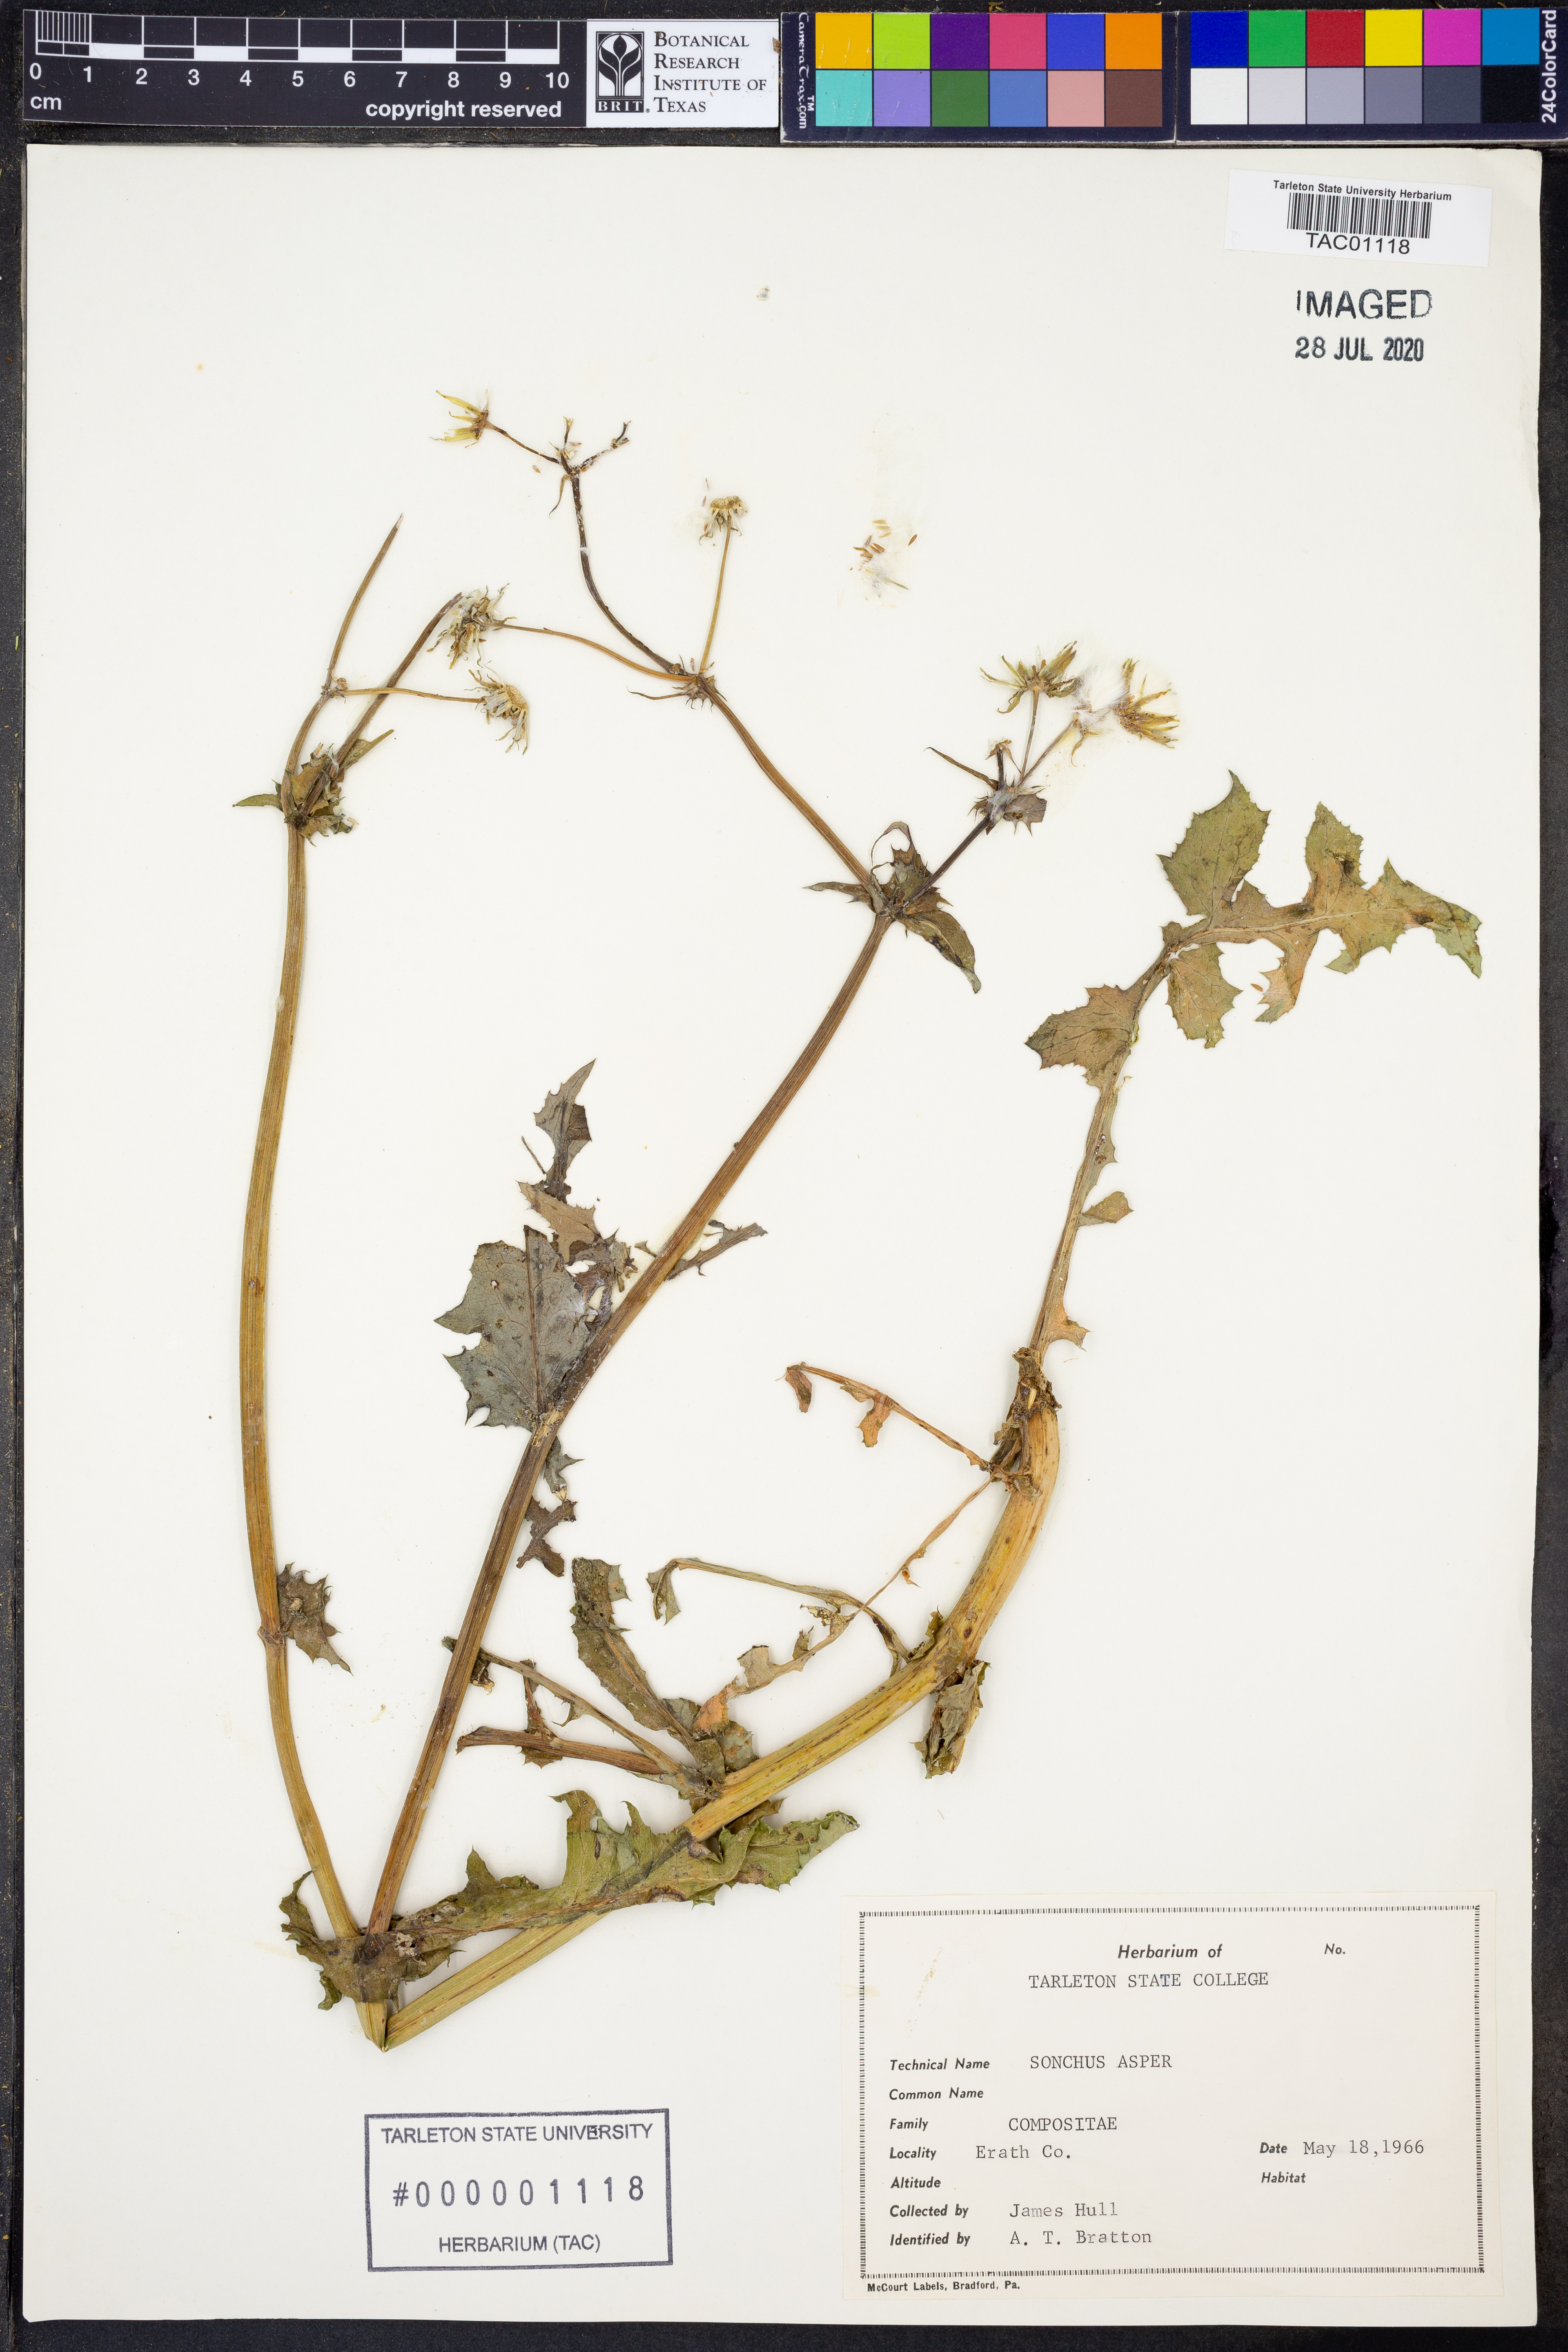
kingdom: Plantae
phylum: Tracheophyta
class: Magnoliopsida
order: Asterales
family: Asteraceae
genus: Sonchus
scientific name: Sonchus asper
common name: Prickly sow-thistle
